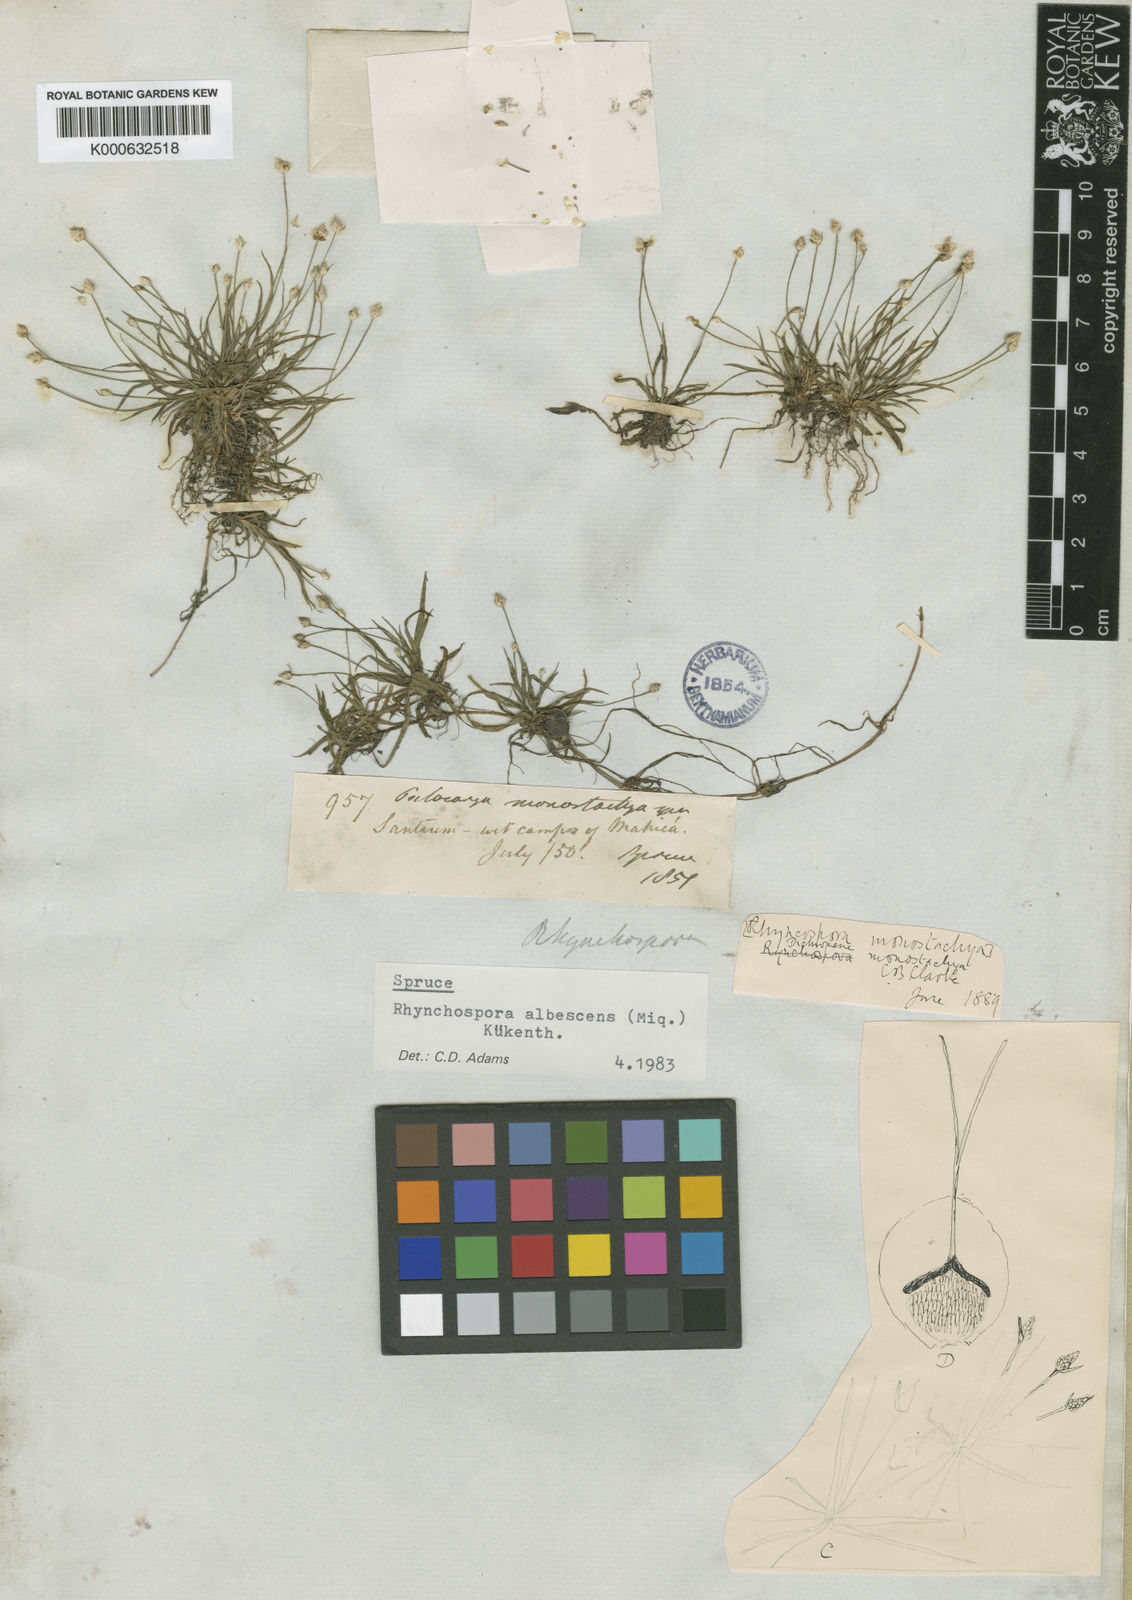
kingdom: Plantae
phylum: Tracheophyta
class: Liliopsida
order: Poales
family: Cyperaceae
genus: Rhynchospora
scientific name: Rhynchospora
